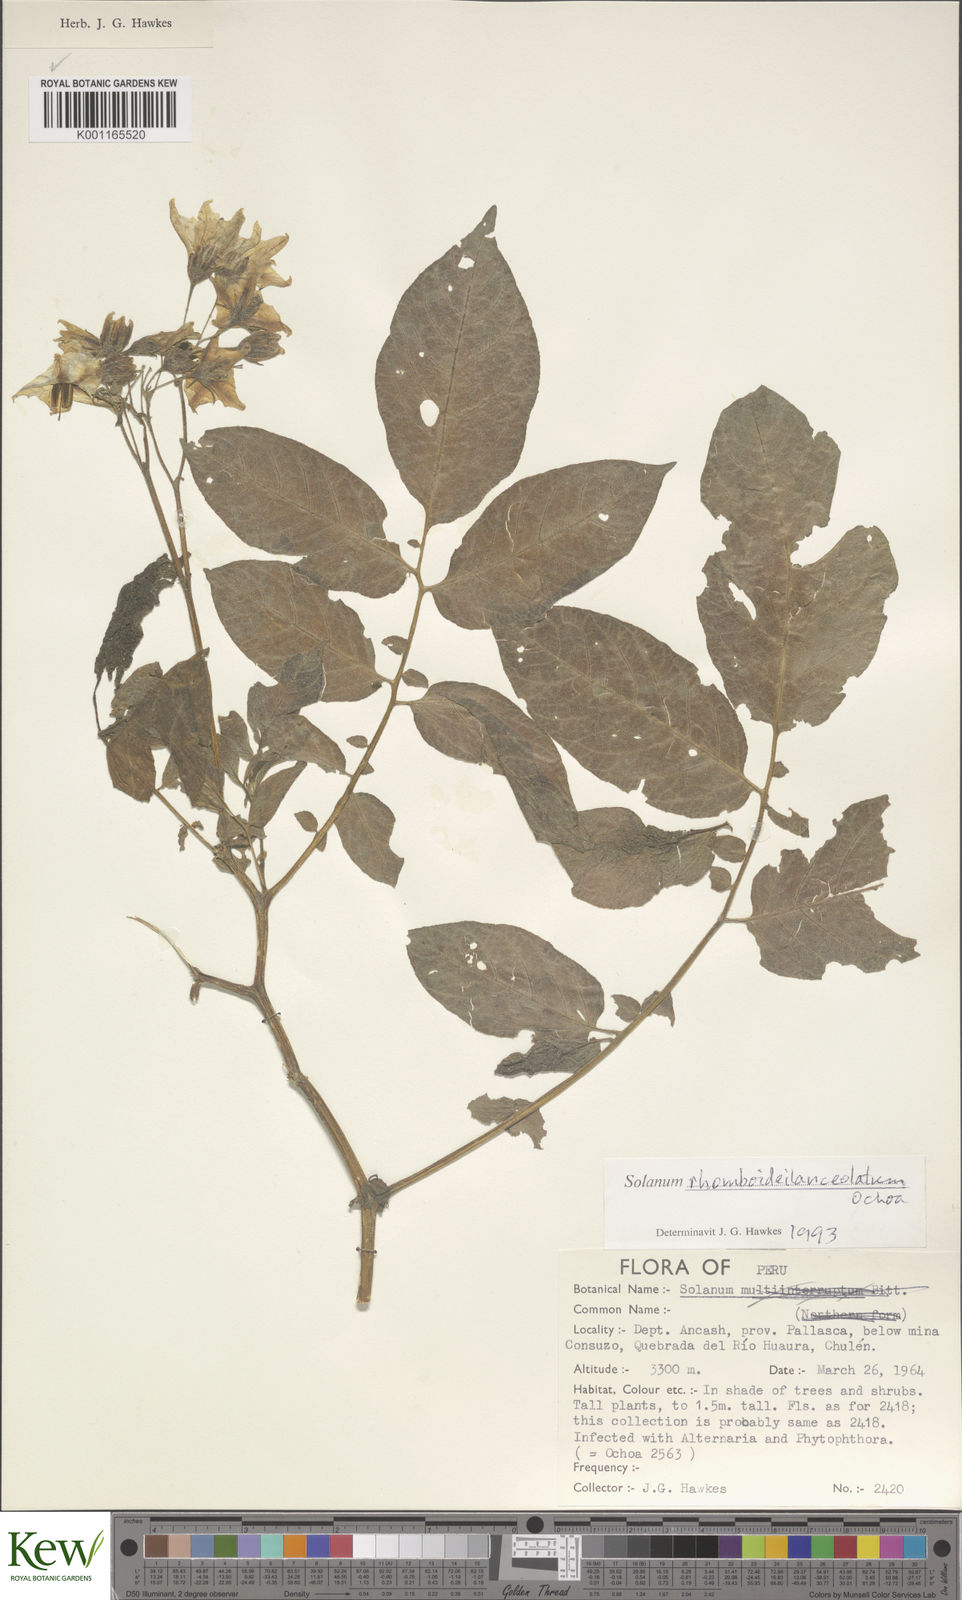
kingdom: Plantae
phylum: Tracheophyta
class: Magnoliopsida
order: Solanales
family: Solanaceae
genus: Solanum
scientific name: Solanum rhomboideilanceolatum
